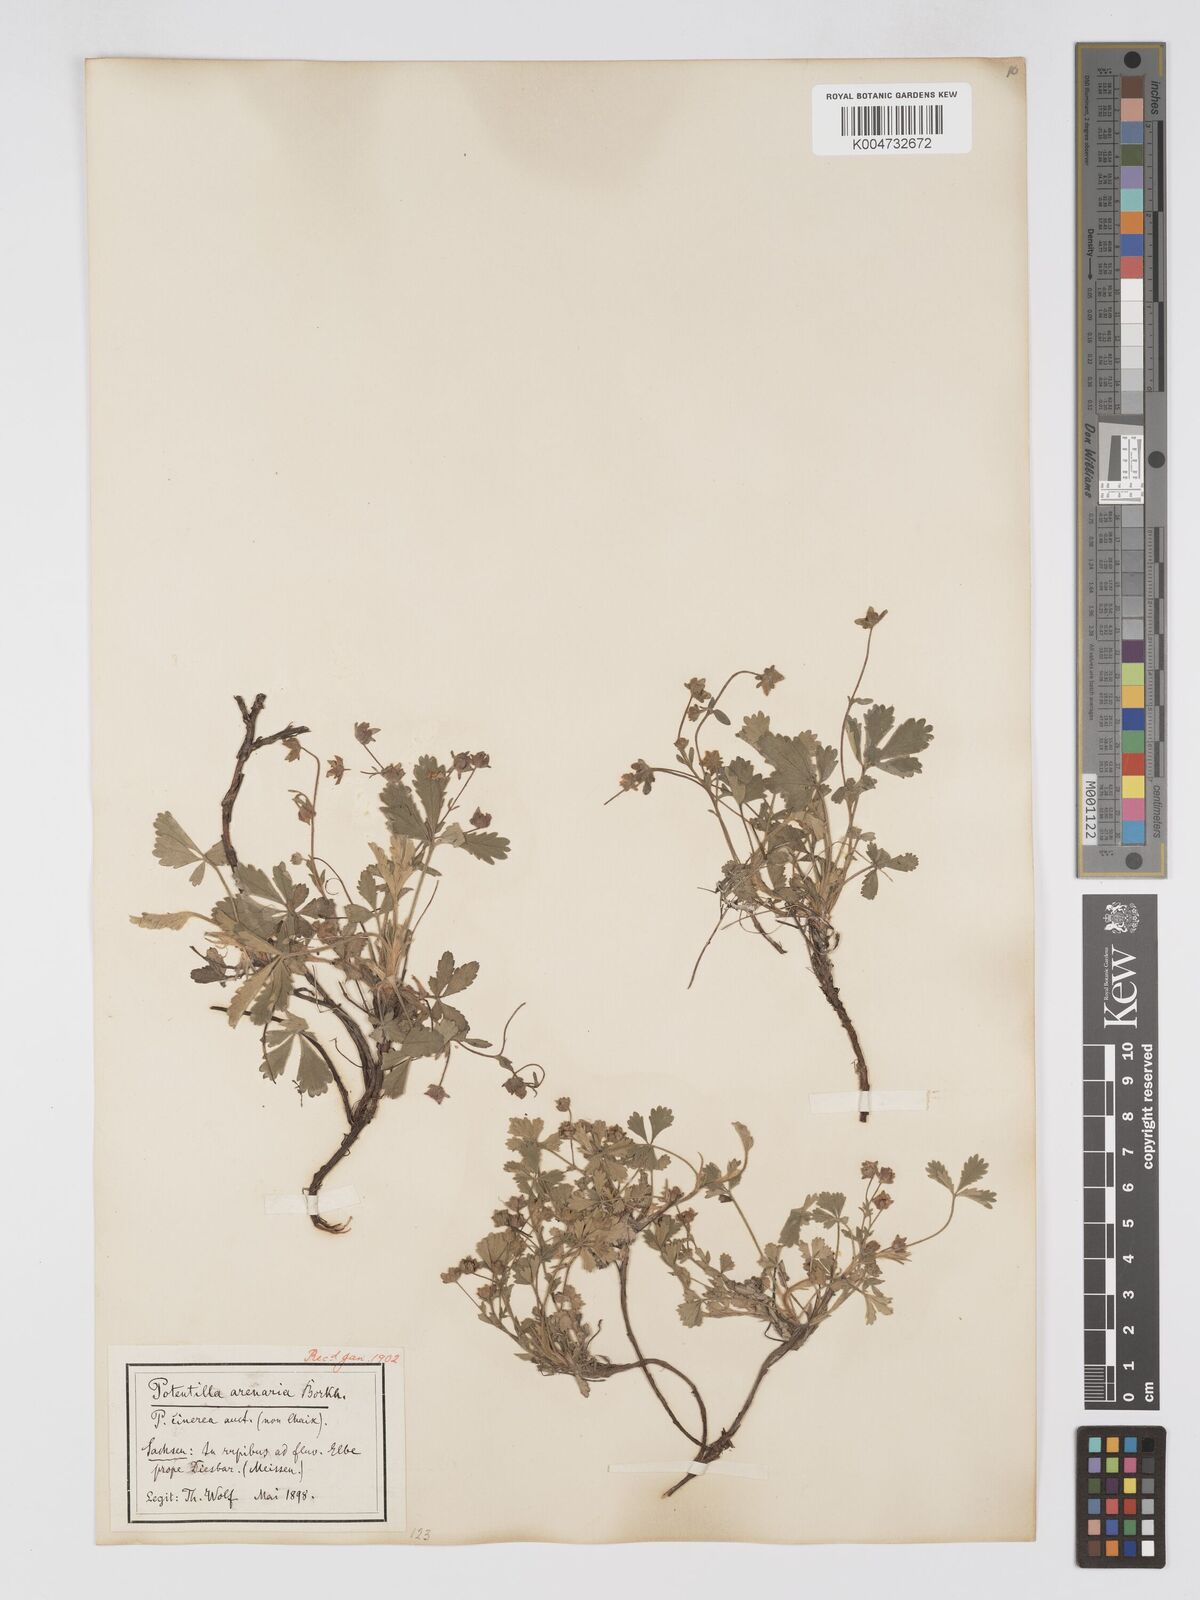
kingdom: Plantae
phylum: Tracheophyta
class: Magnoliopsida
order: Rosales
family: Rosaceae
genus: Potentilla
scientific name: Potentilla cinerea
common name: Ashy cinquefoil
